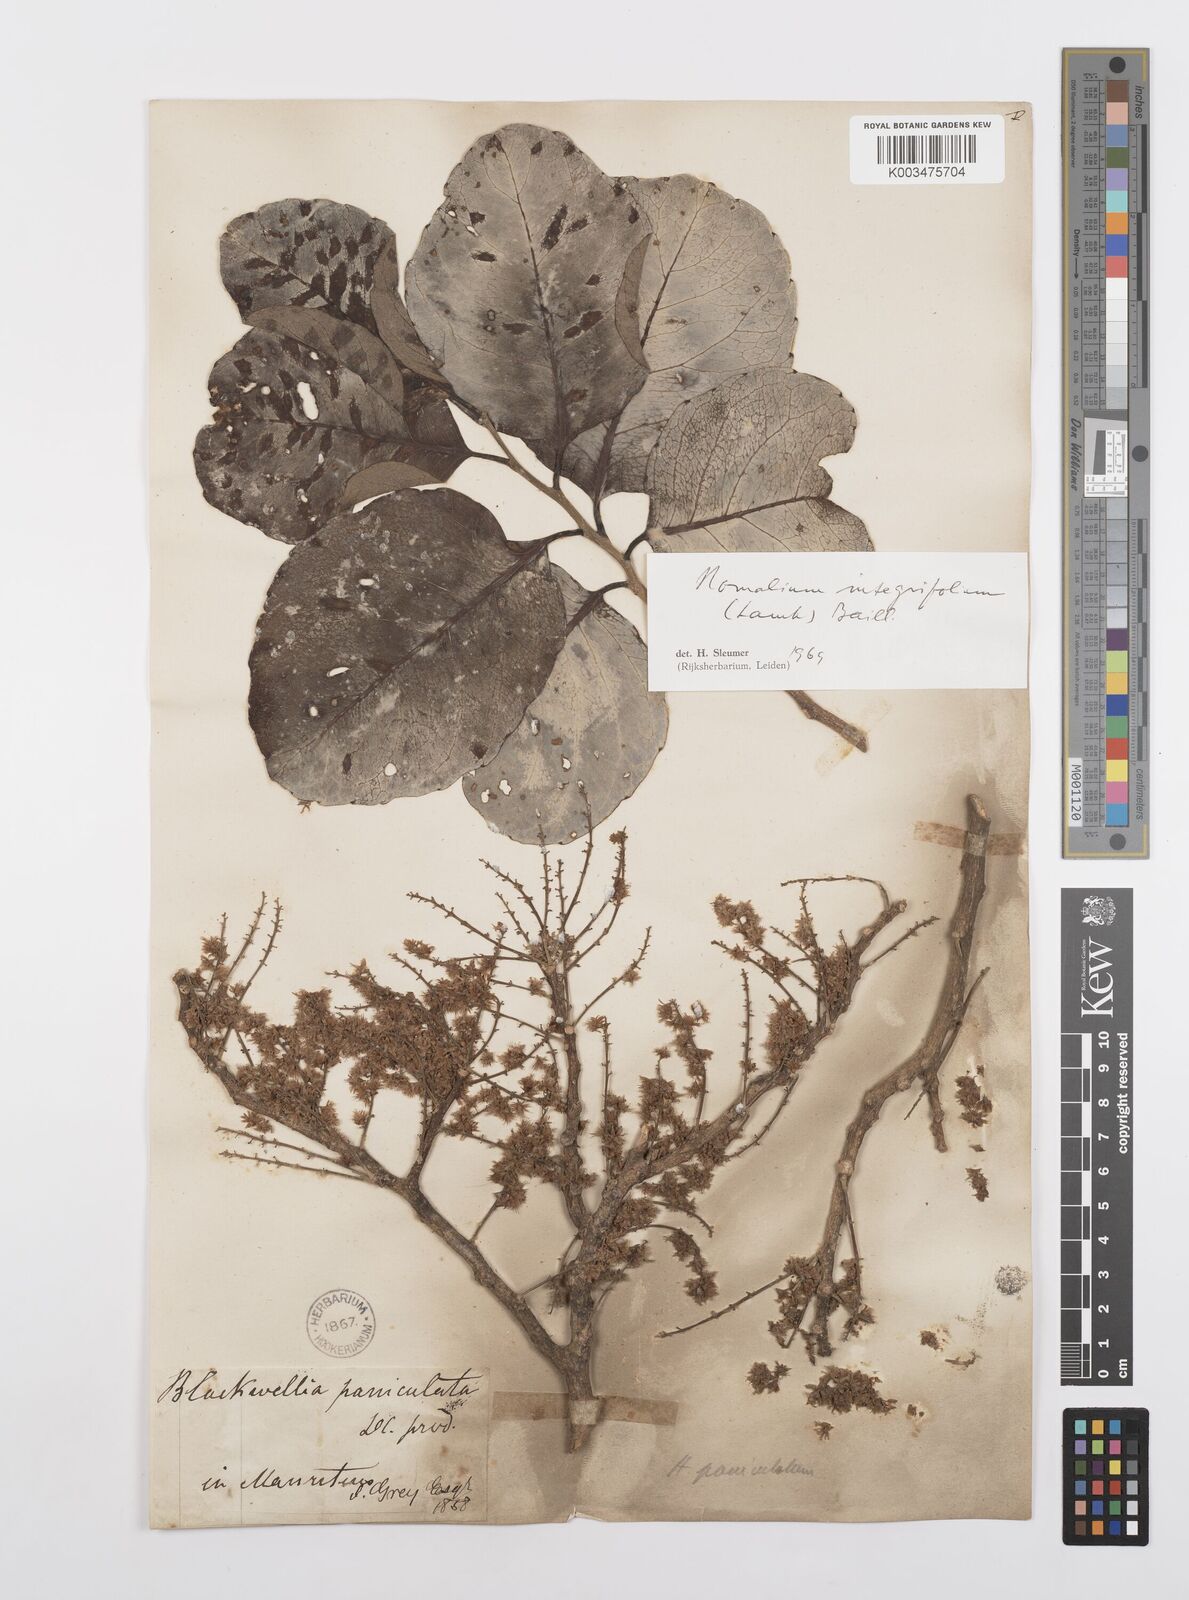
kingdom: Plantae
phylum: Tracheophyta
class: Magnoliopsida
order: Malpighiales
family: Salicaceae
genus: Homalium
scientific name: Homalium integrifolium
